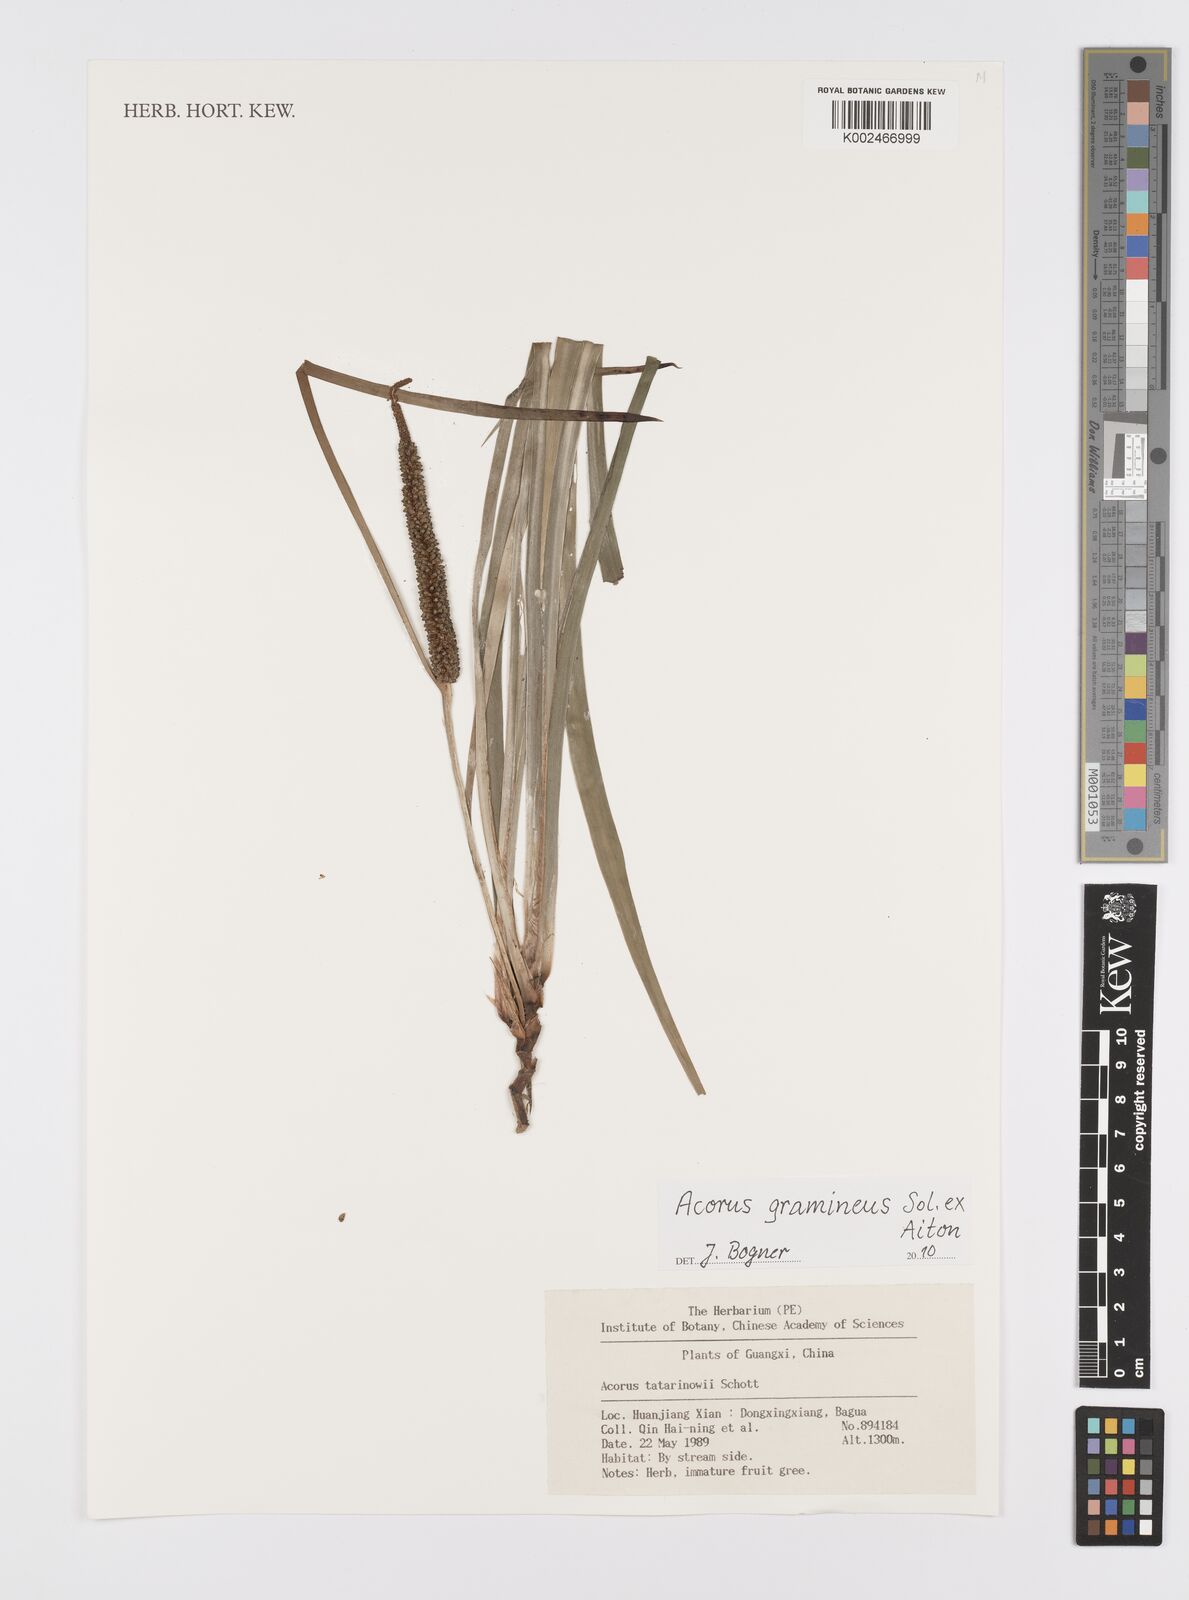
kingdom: Plantae
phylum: Tracheophyta
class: Liliopsida
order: Acorales
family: Acoraceae
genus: Acorus
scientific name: Acorus calamus
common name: Sweet-flag
